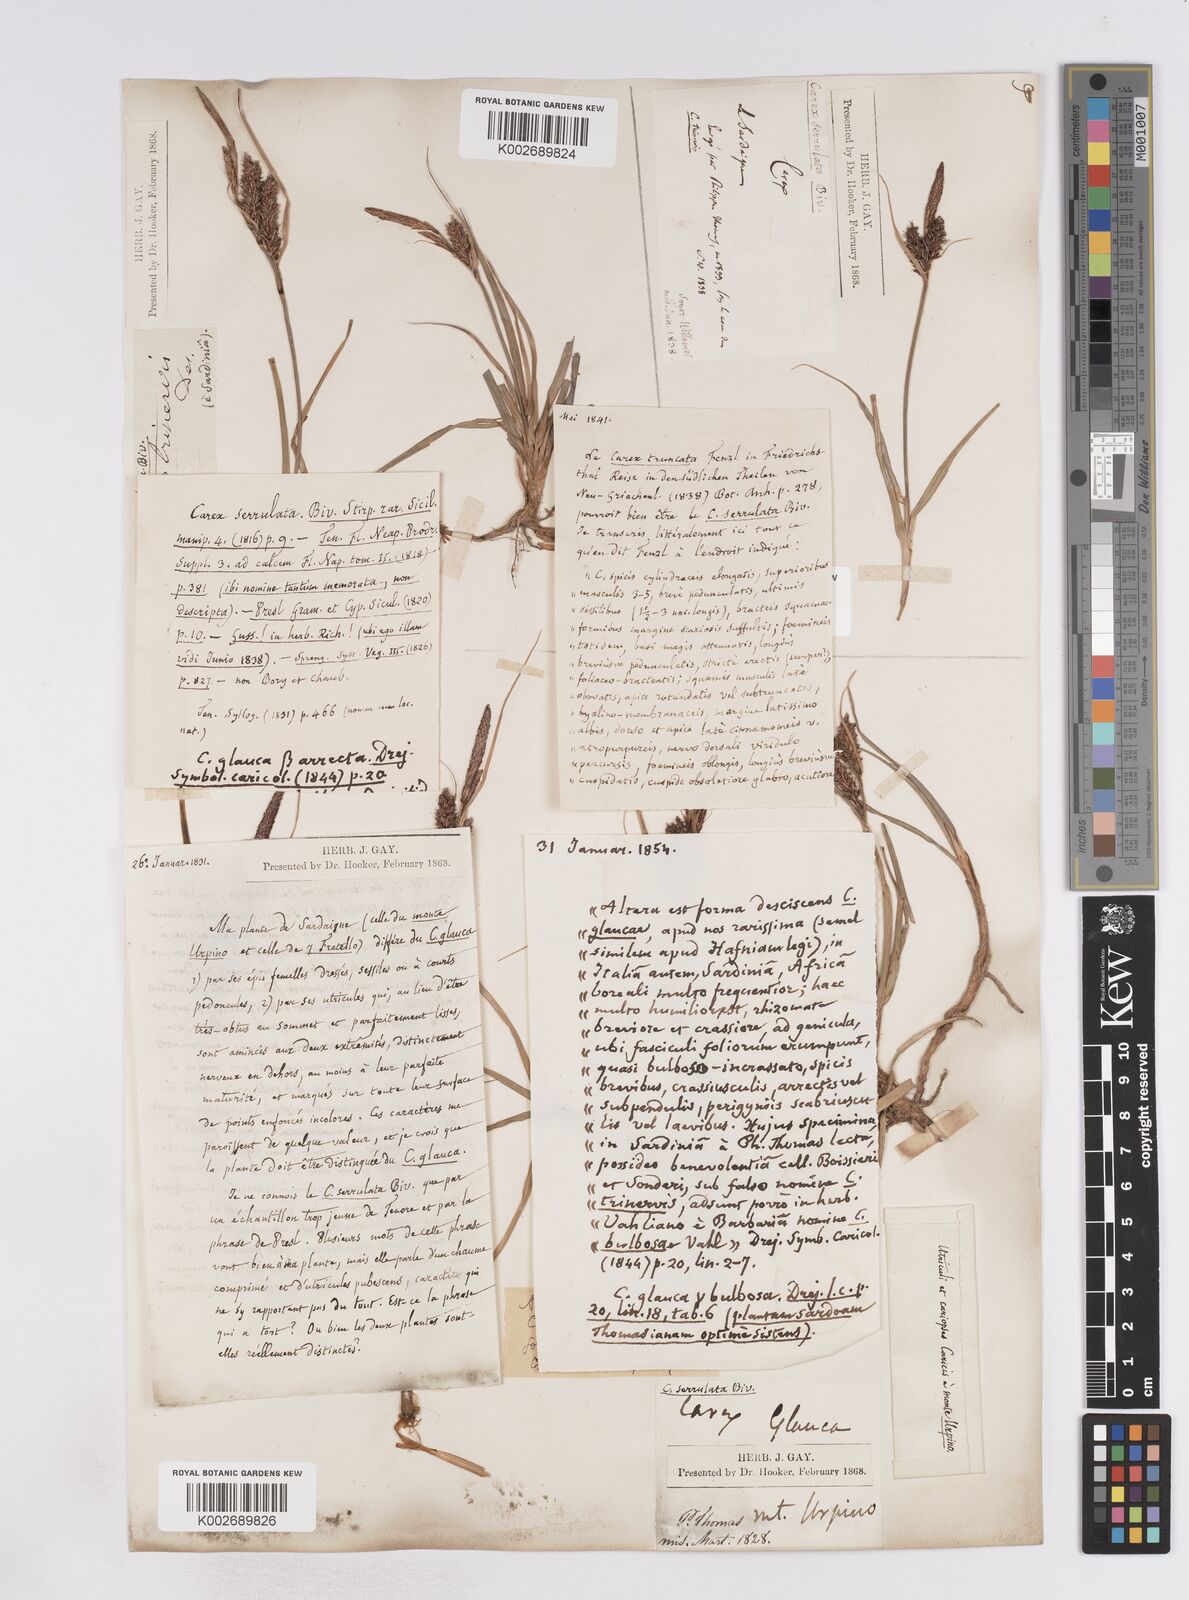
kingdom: Plantae
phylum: Tracheophyta
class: Liliopsida
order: Poales
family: Cyperaceae
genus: Carex
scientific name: Carex flacca
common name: Glaucous sedge
